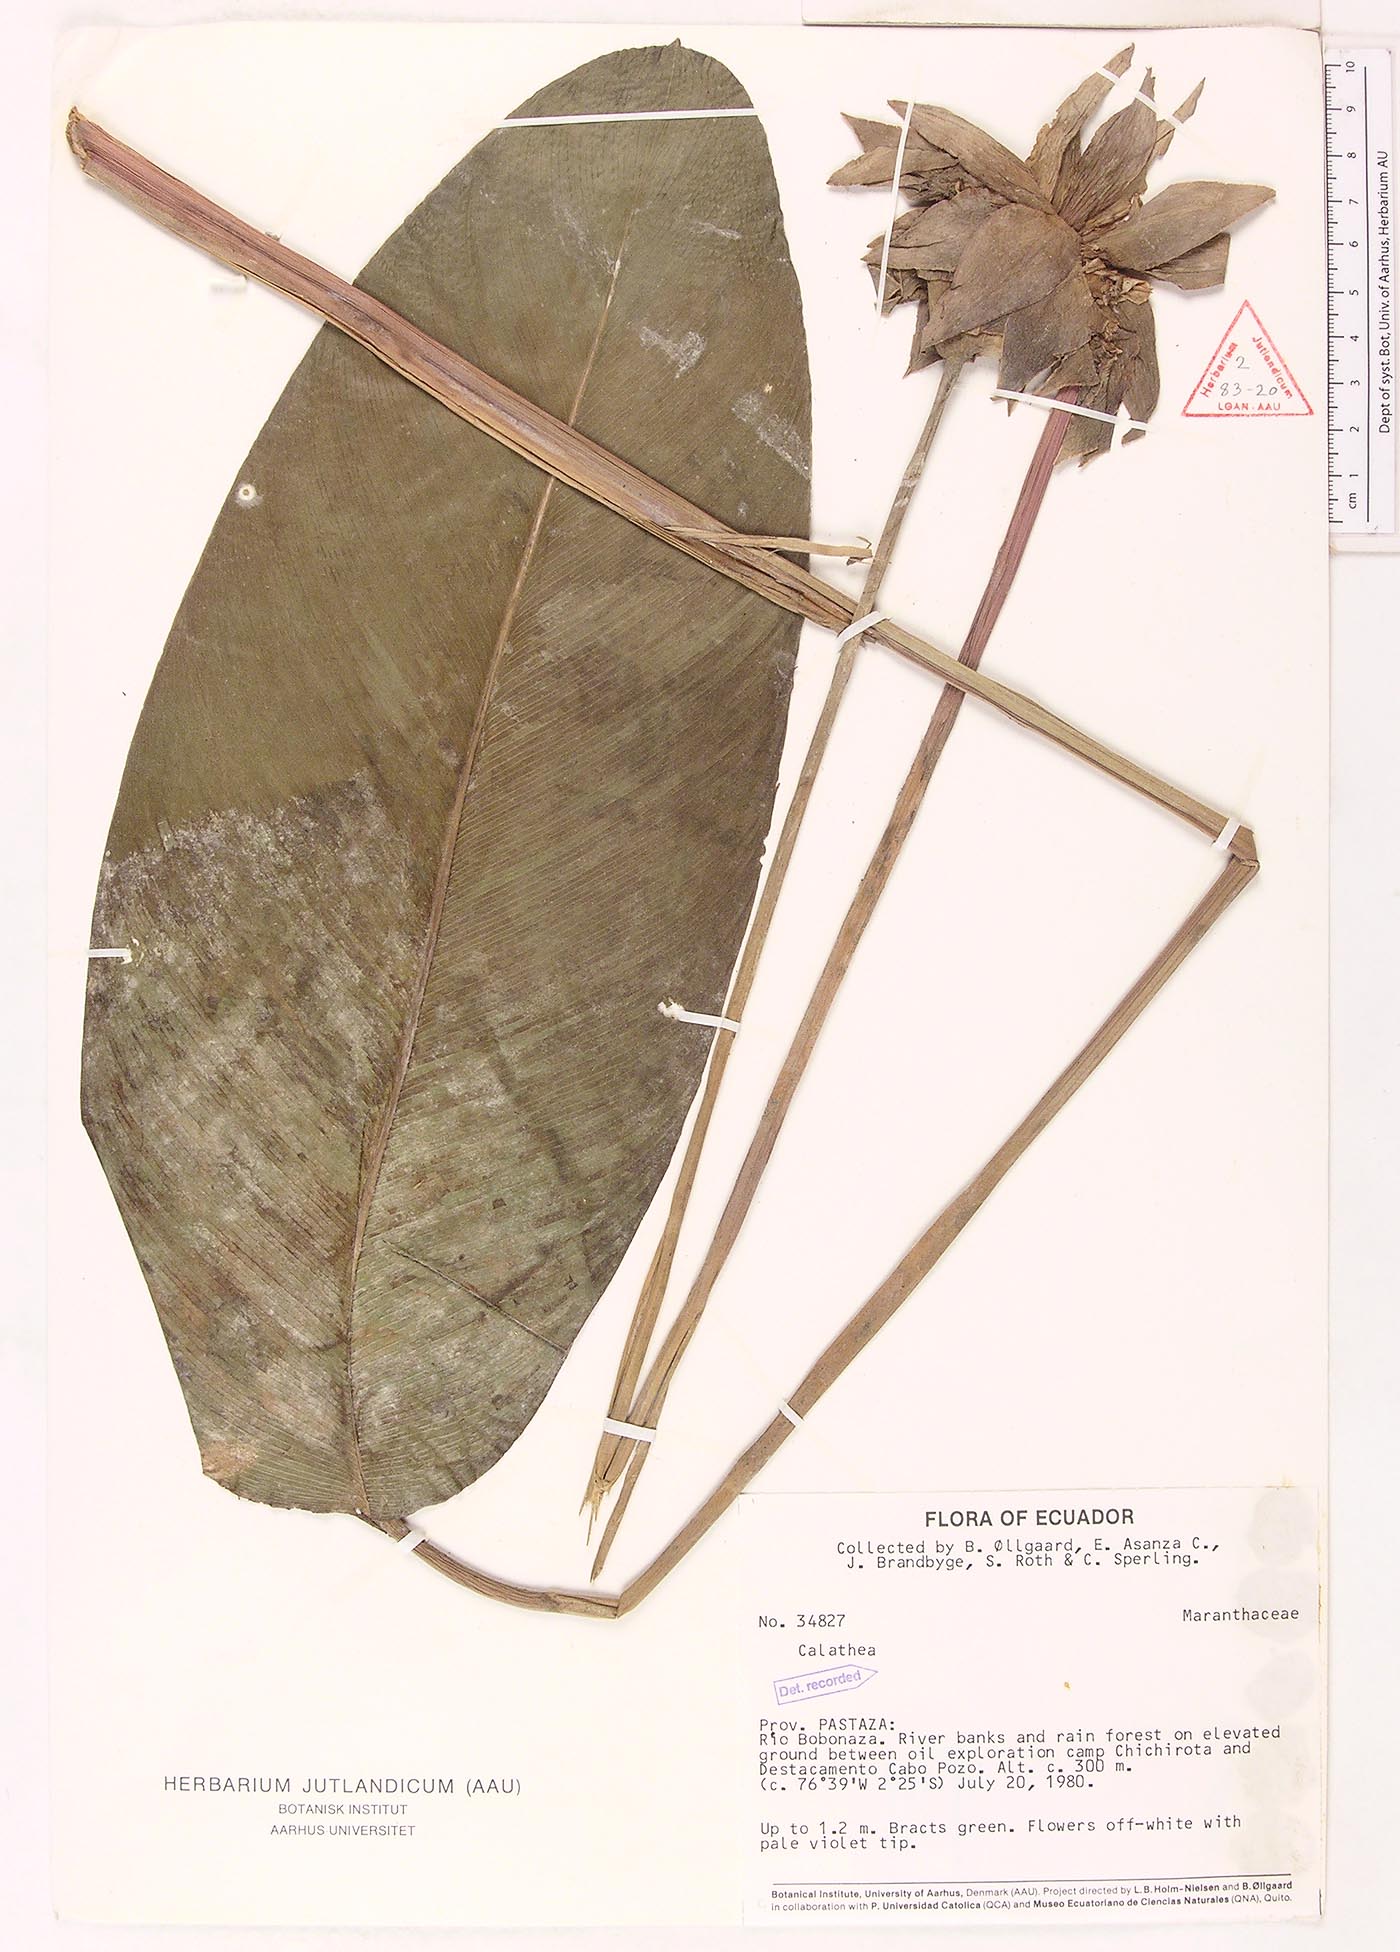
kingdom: Plantae
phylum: Tracheophyta
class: Magnoliopsida
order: Laurales
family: Lauraceae
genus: Goeppertia
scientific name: Goeppertia
